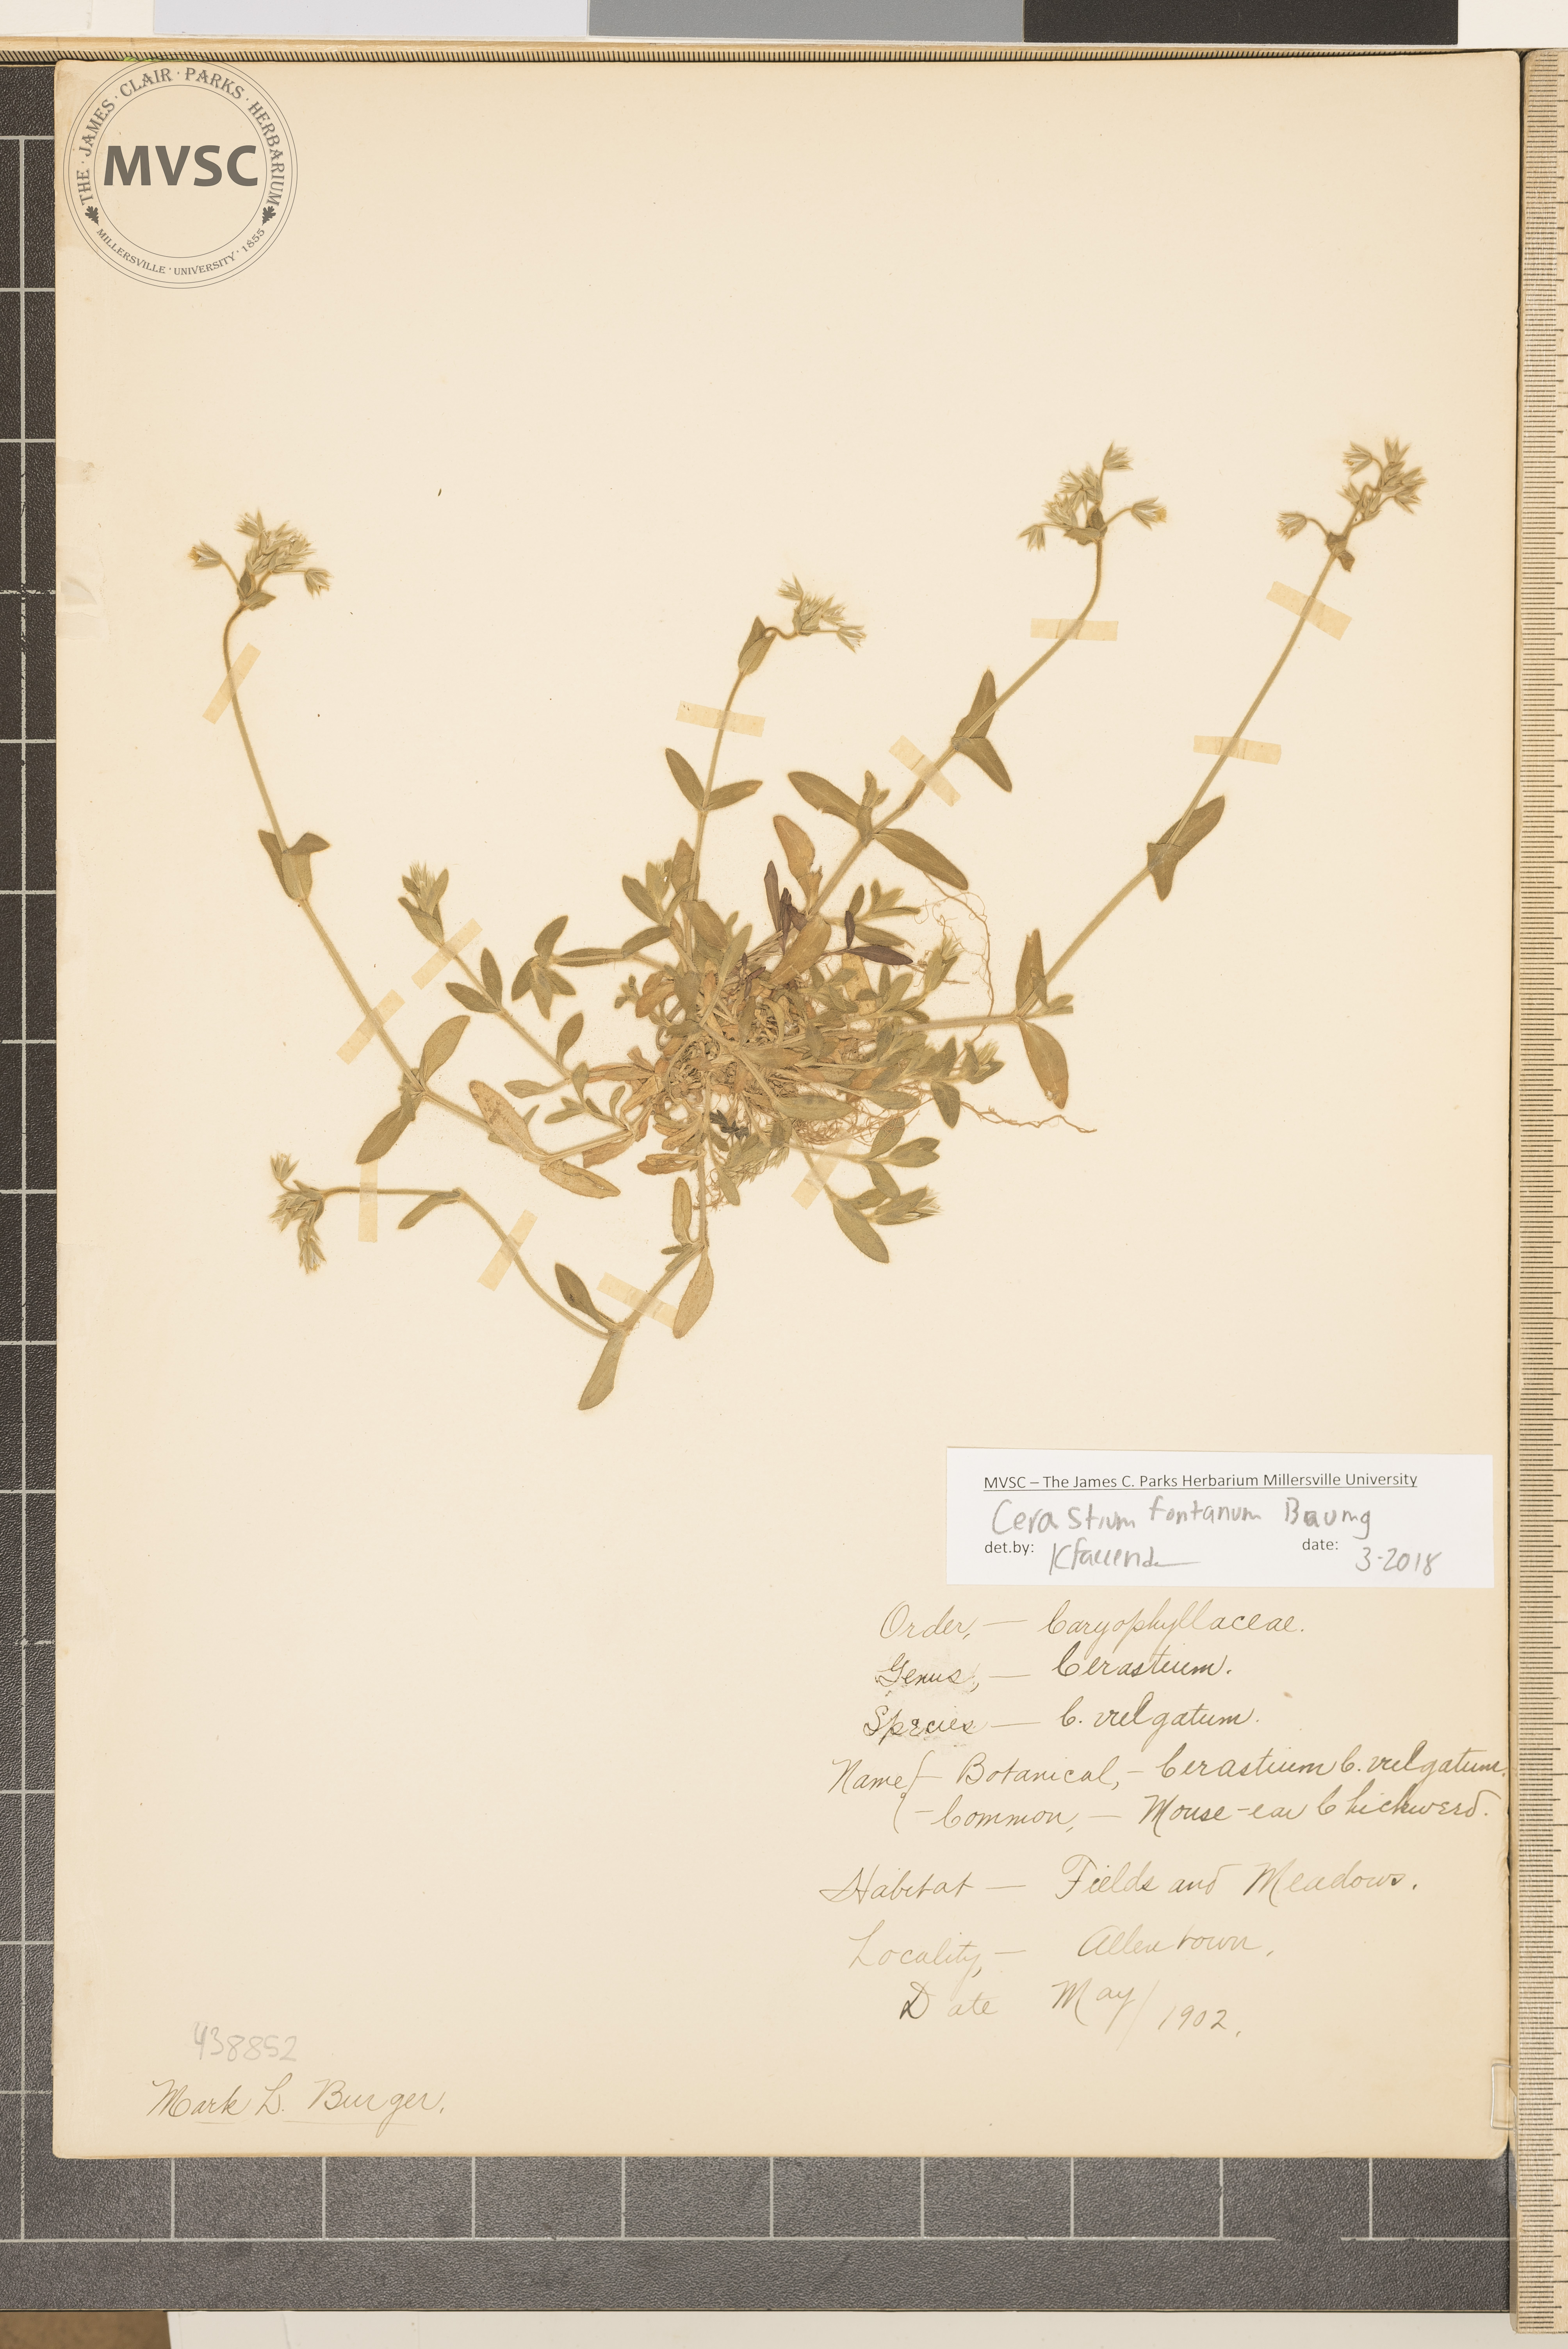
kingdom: Plantae
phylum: Tracheophyta
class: Magnoliopsida
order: Caryophyllales
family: Caryophyllaceae
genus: Cerastium
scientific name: Cerastium fontanum
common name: Mouse-ear Chickweed
